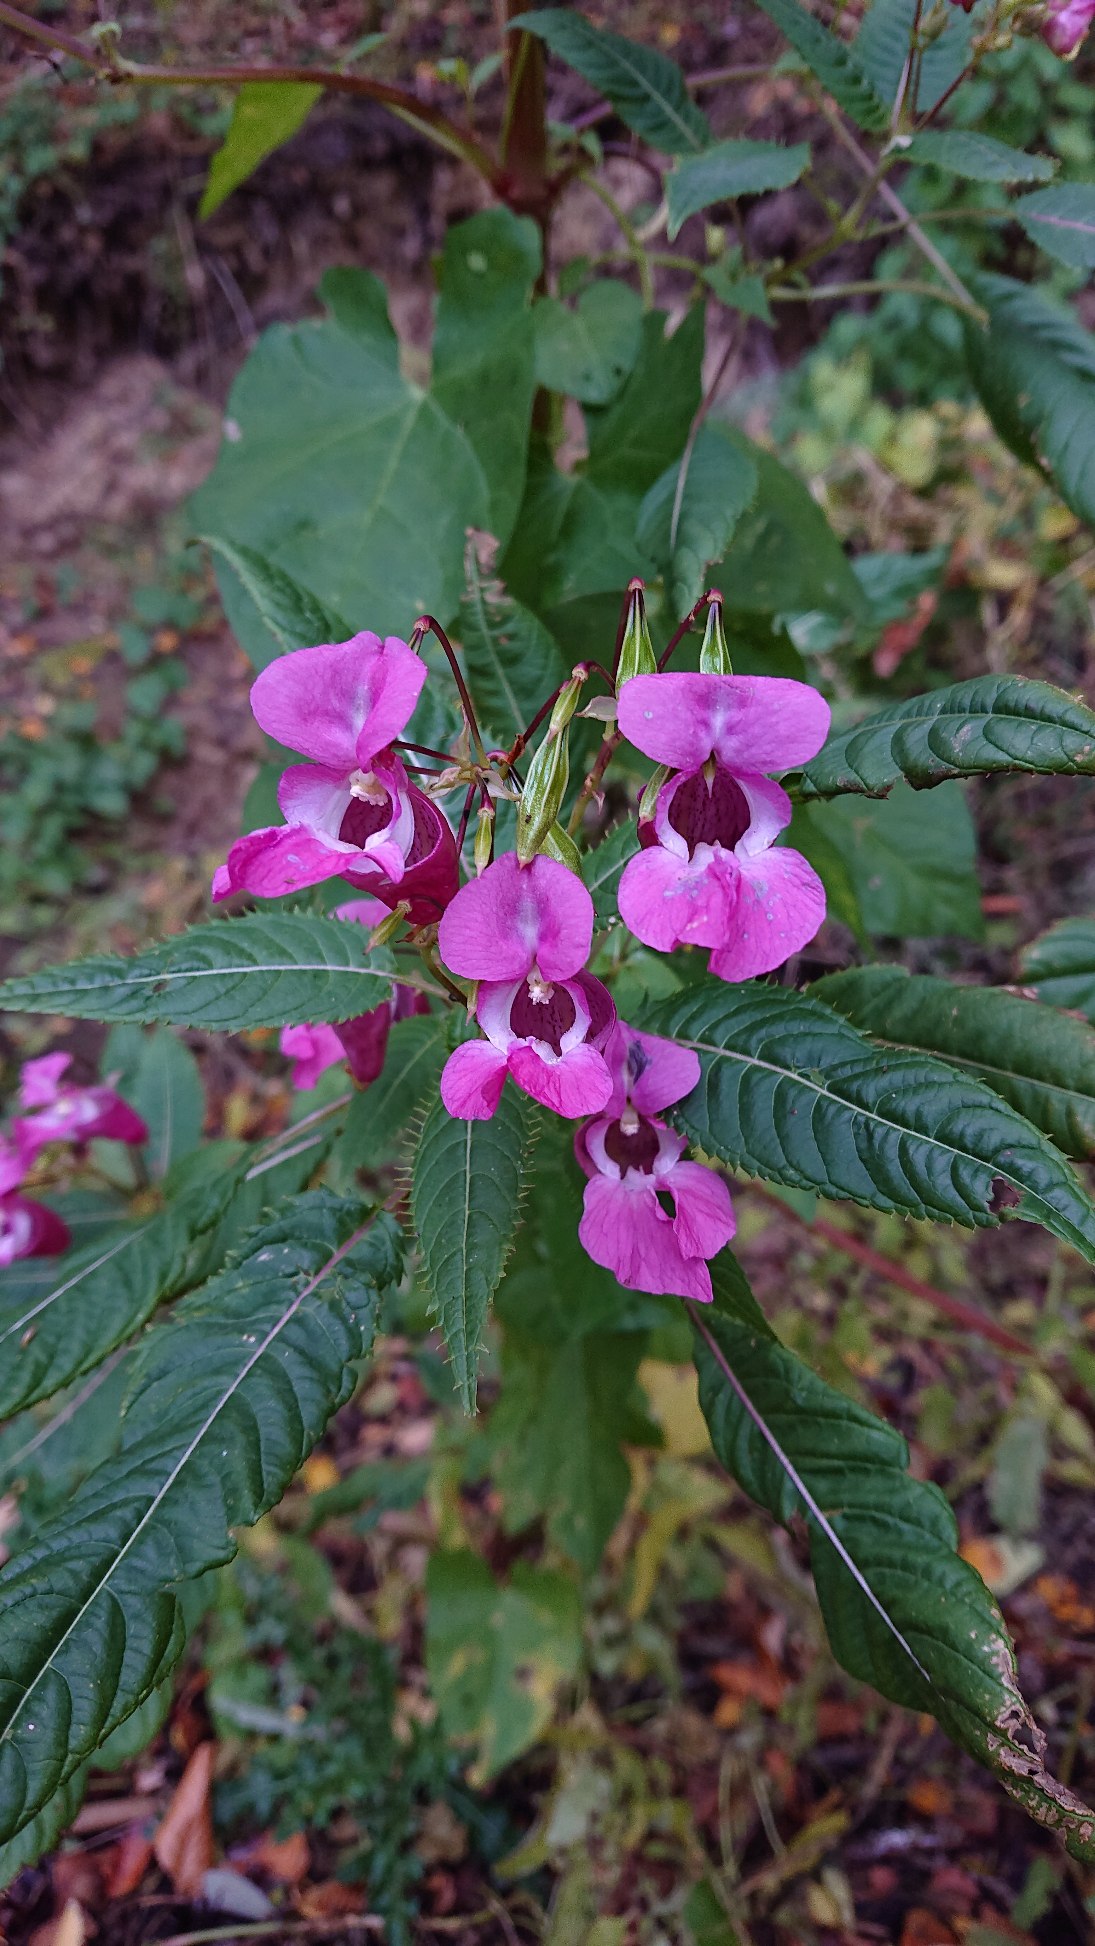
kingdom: Plantae
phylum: Tracheophyta
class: Magnoliopsida
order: Ericales
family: Balsaminaceae
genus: Impatiens
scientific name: Impatiens glandulifera
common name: Kæmpe-balsamin
